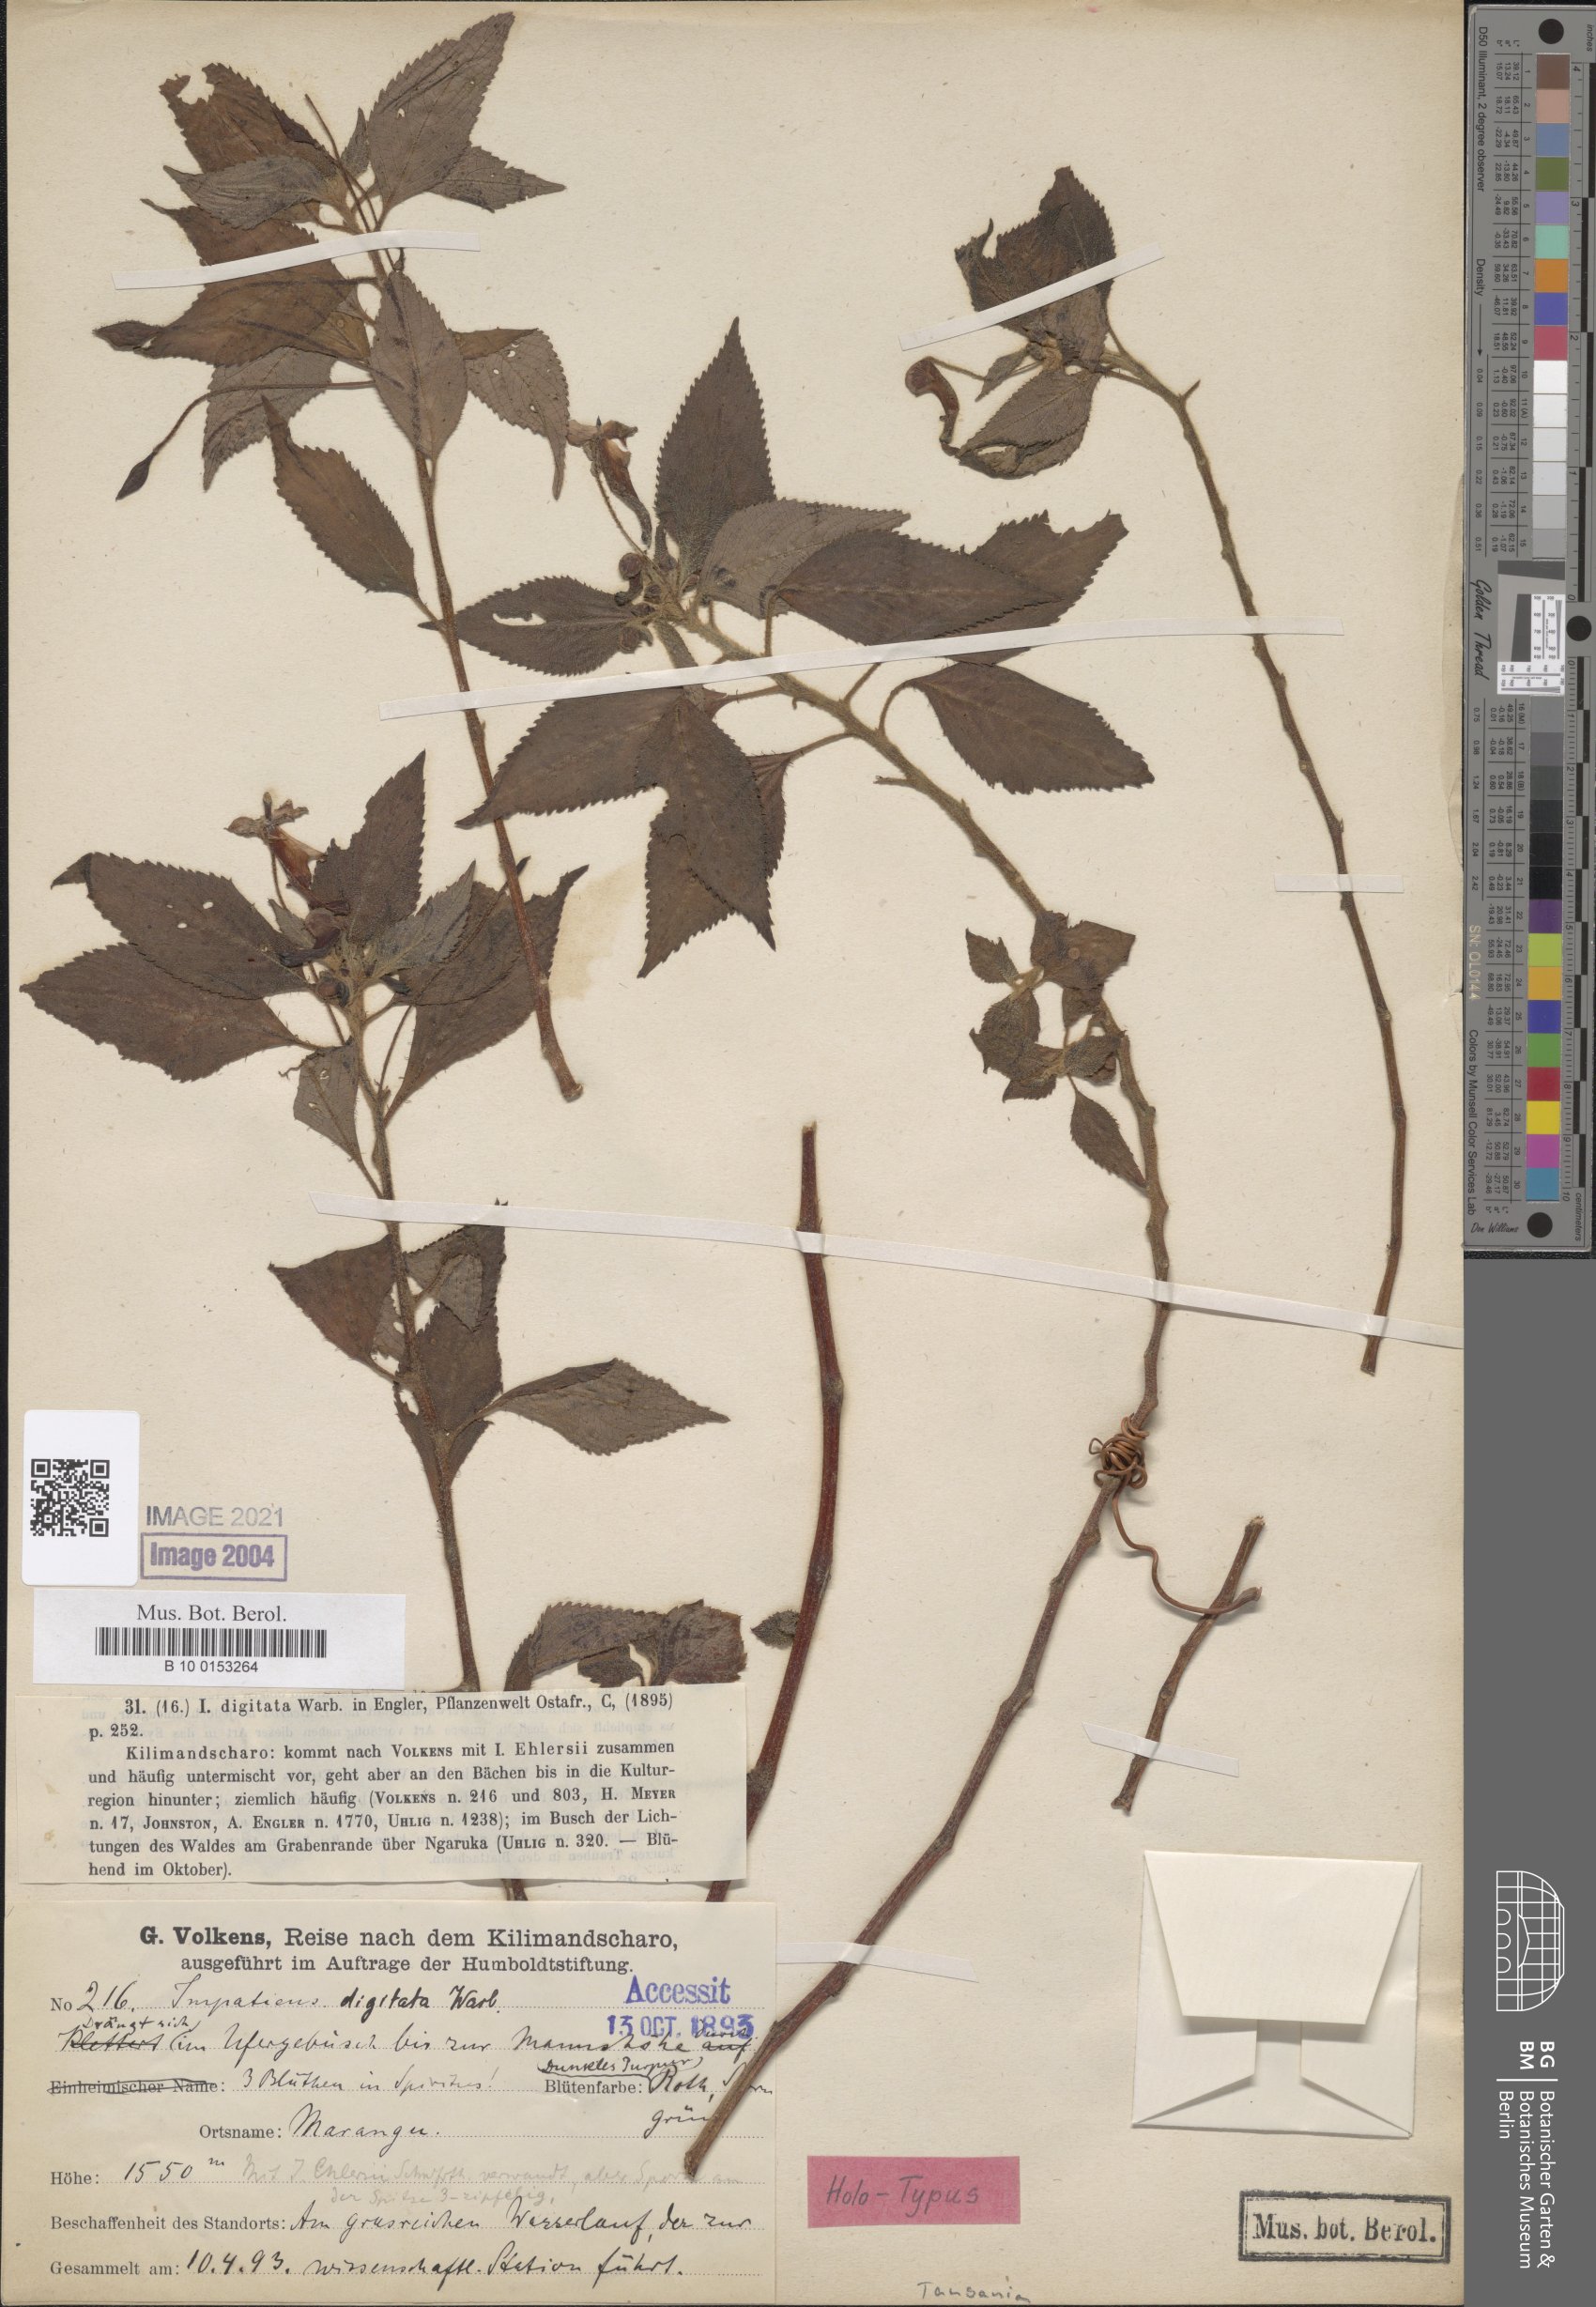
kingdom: Plantae
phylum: Tracheophyta
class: Magnoliopsida
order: Ericales
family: Balsaminaceae
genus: Impatiens
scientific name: Impatiens digitata
